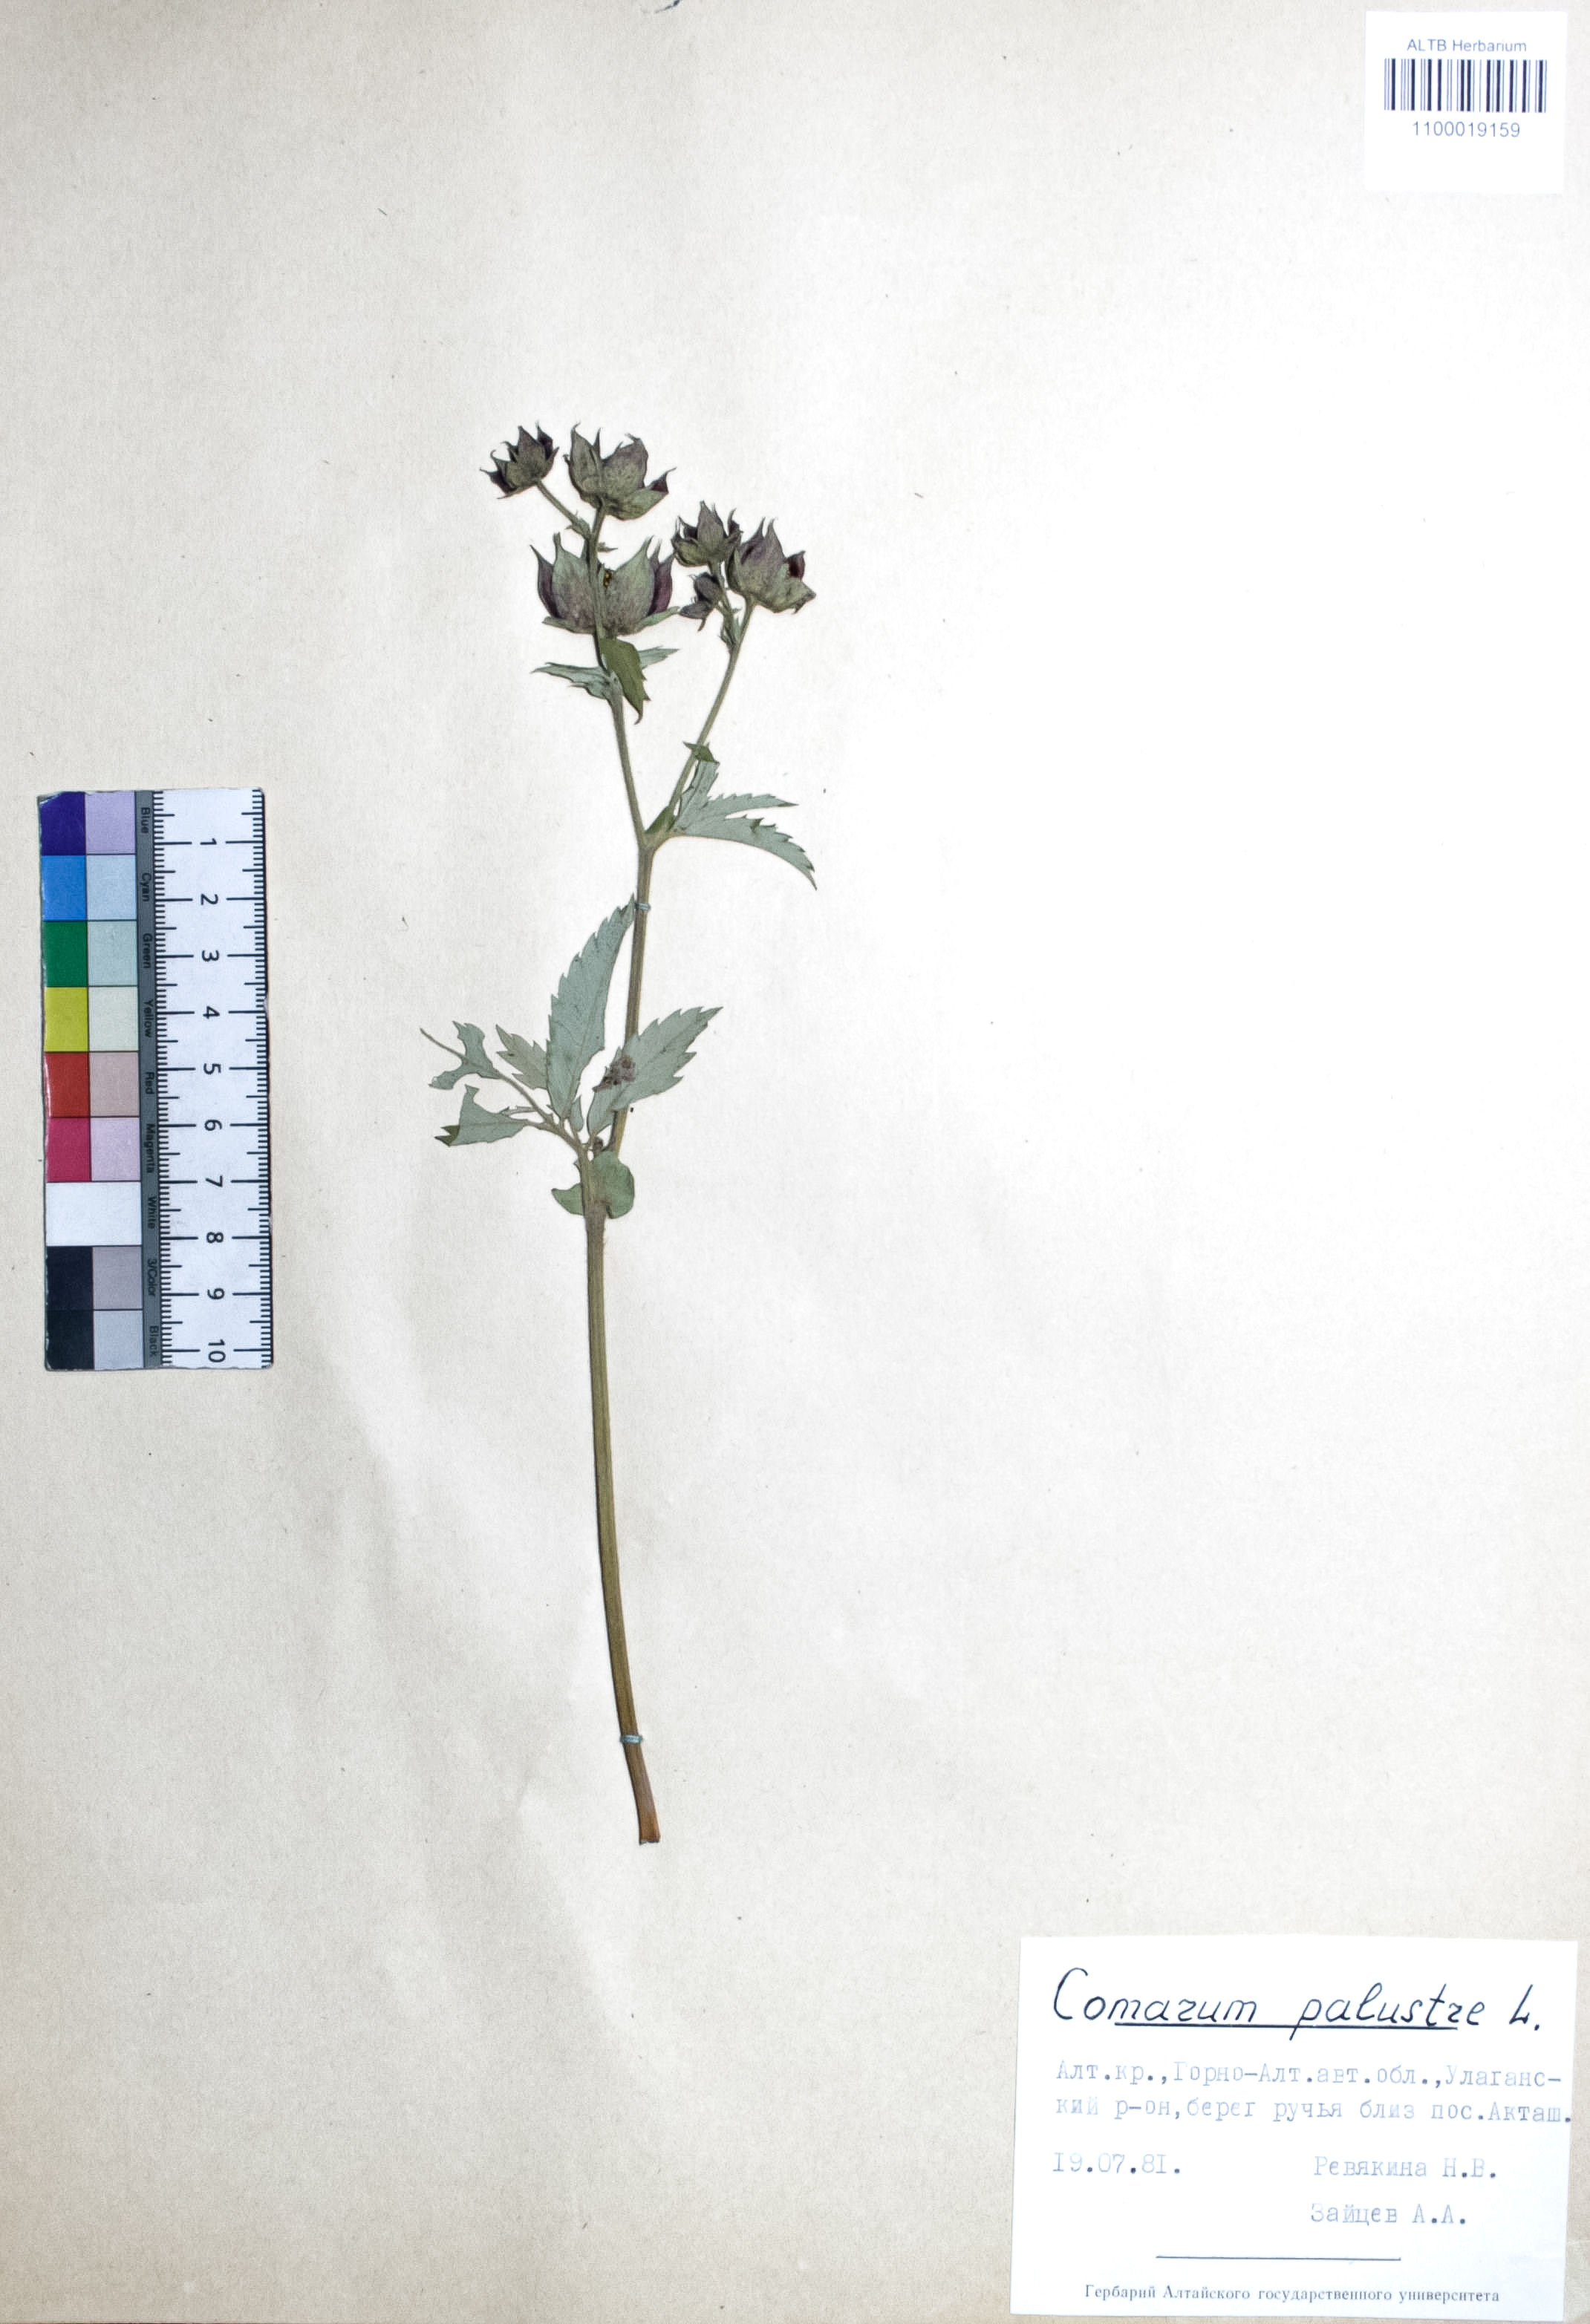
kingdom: Plantae
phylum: Tracheophyta
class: Magnoliopsida
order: Rosales
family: Rosaceae
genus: Comarum
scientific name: Comarum palustre
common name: Marsh cinquefoil
